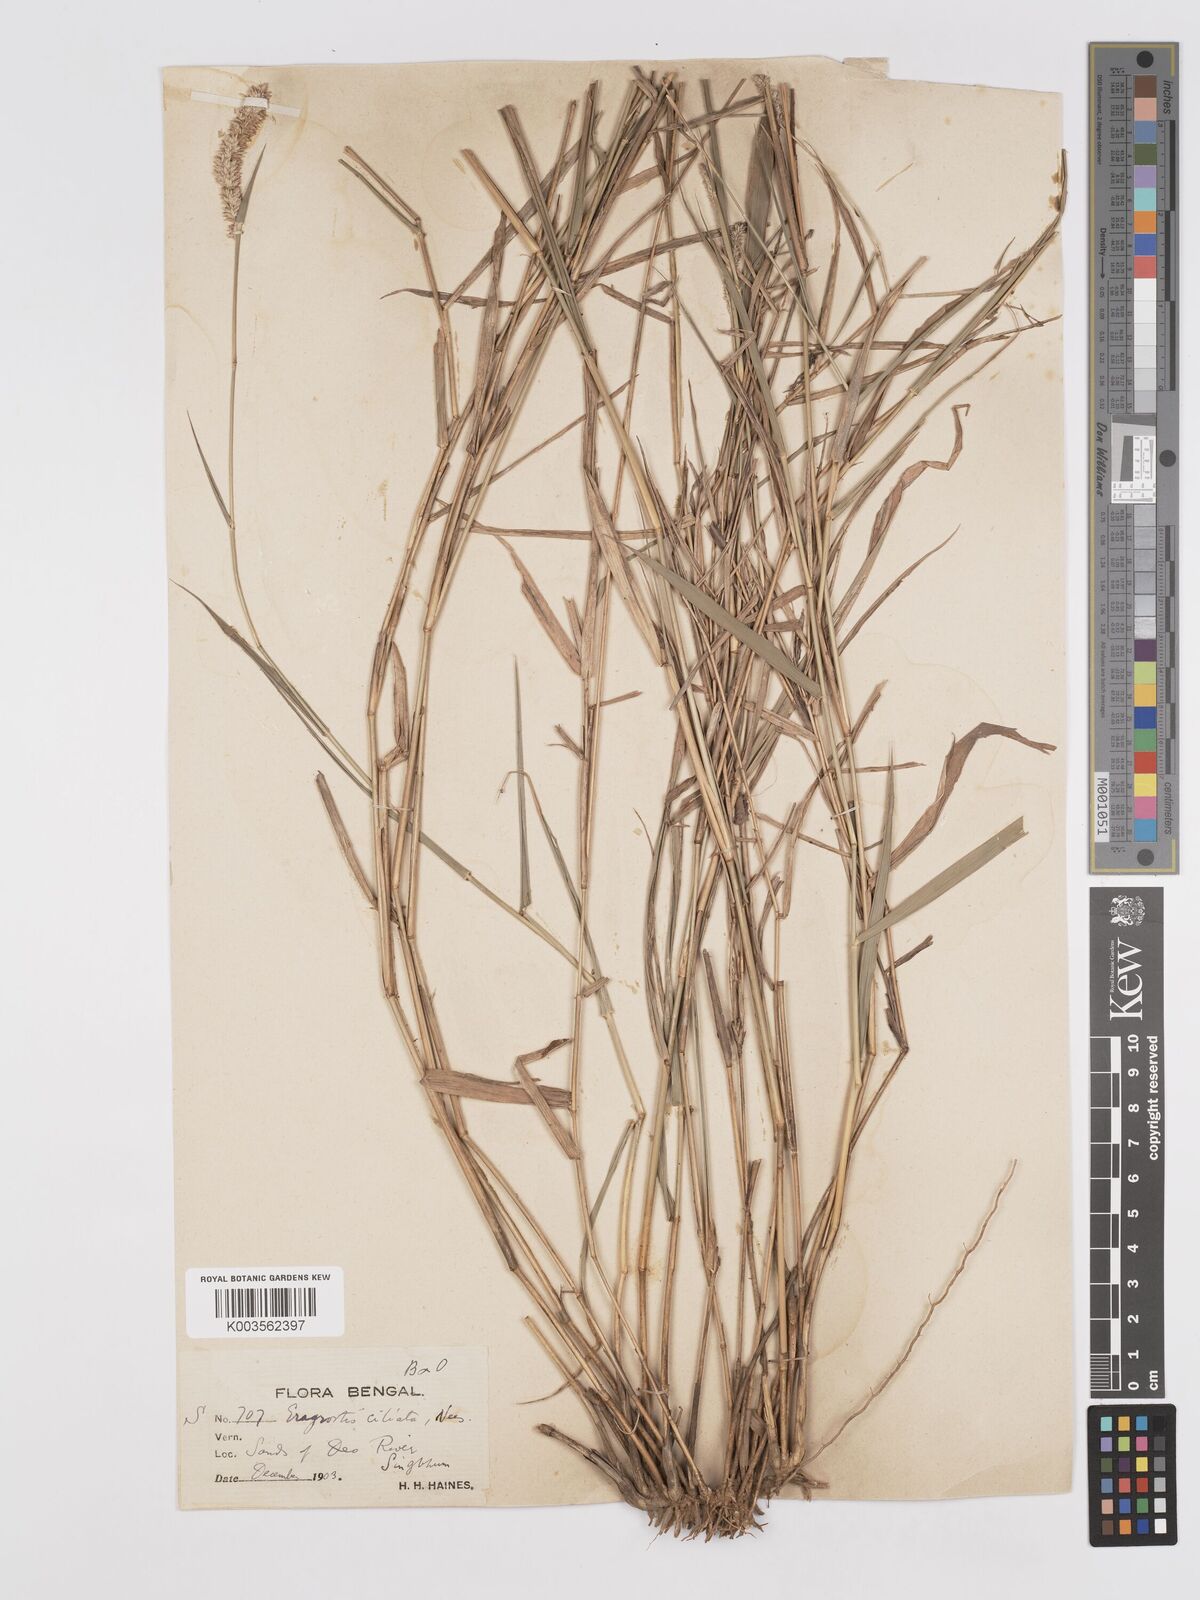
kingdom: Plantae
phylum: Tracheophyta
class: Liliopsida
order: Poales
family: Poaceae
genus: Eragrostis
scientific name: Eragrostis ciliata
